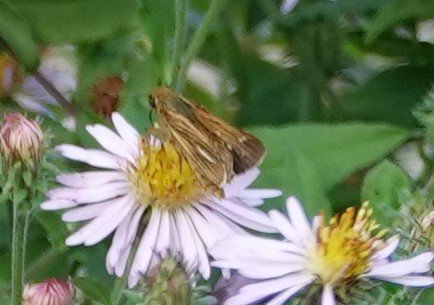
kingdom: Animalia
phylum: Arthropoda
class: Insecta
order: Lepidoptera
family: Hesperiidae
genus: Panoquina
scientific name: Panoquina panoquin
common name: Salt Marsh Skipper
